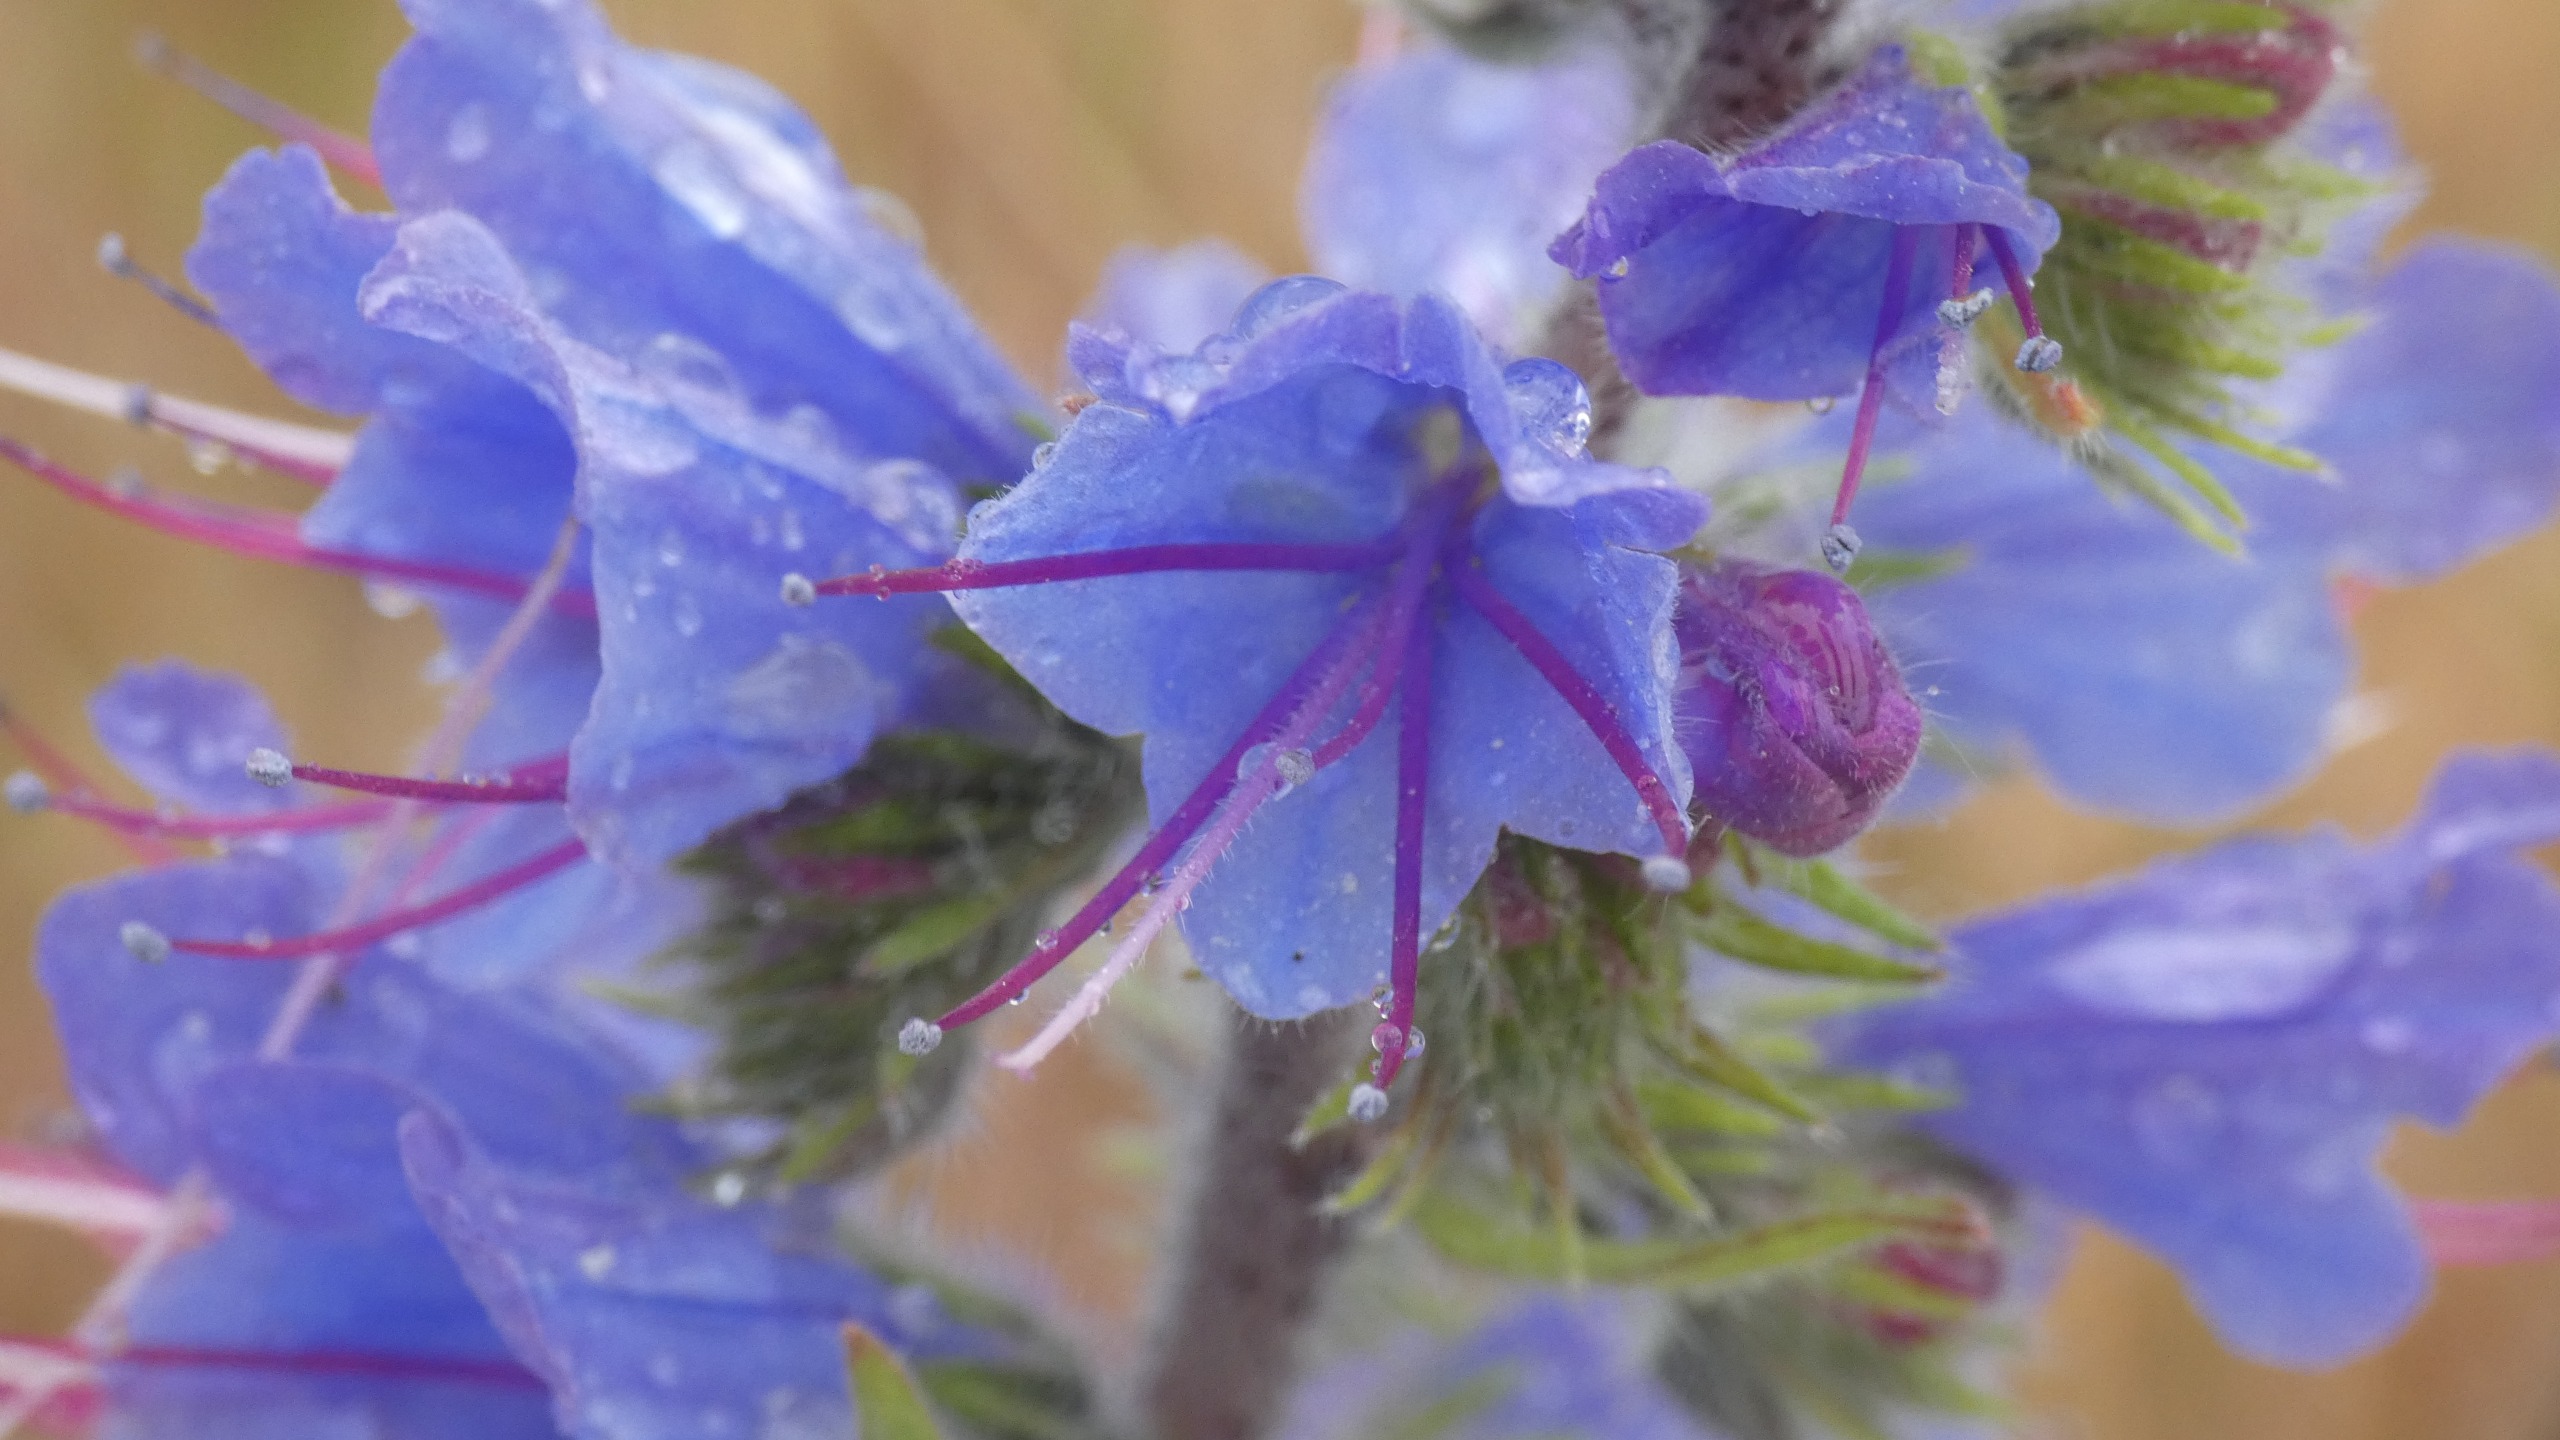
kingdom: Plantae
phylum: Tracheophyta
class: Magnoliopsida
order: Boraginales
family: Boraginaceae
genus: Echium
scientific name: Echium vulgare
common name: Slangehoved
